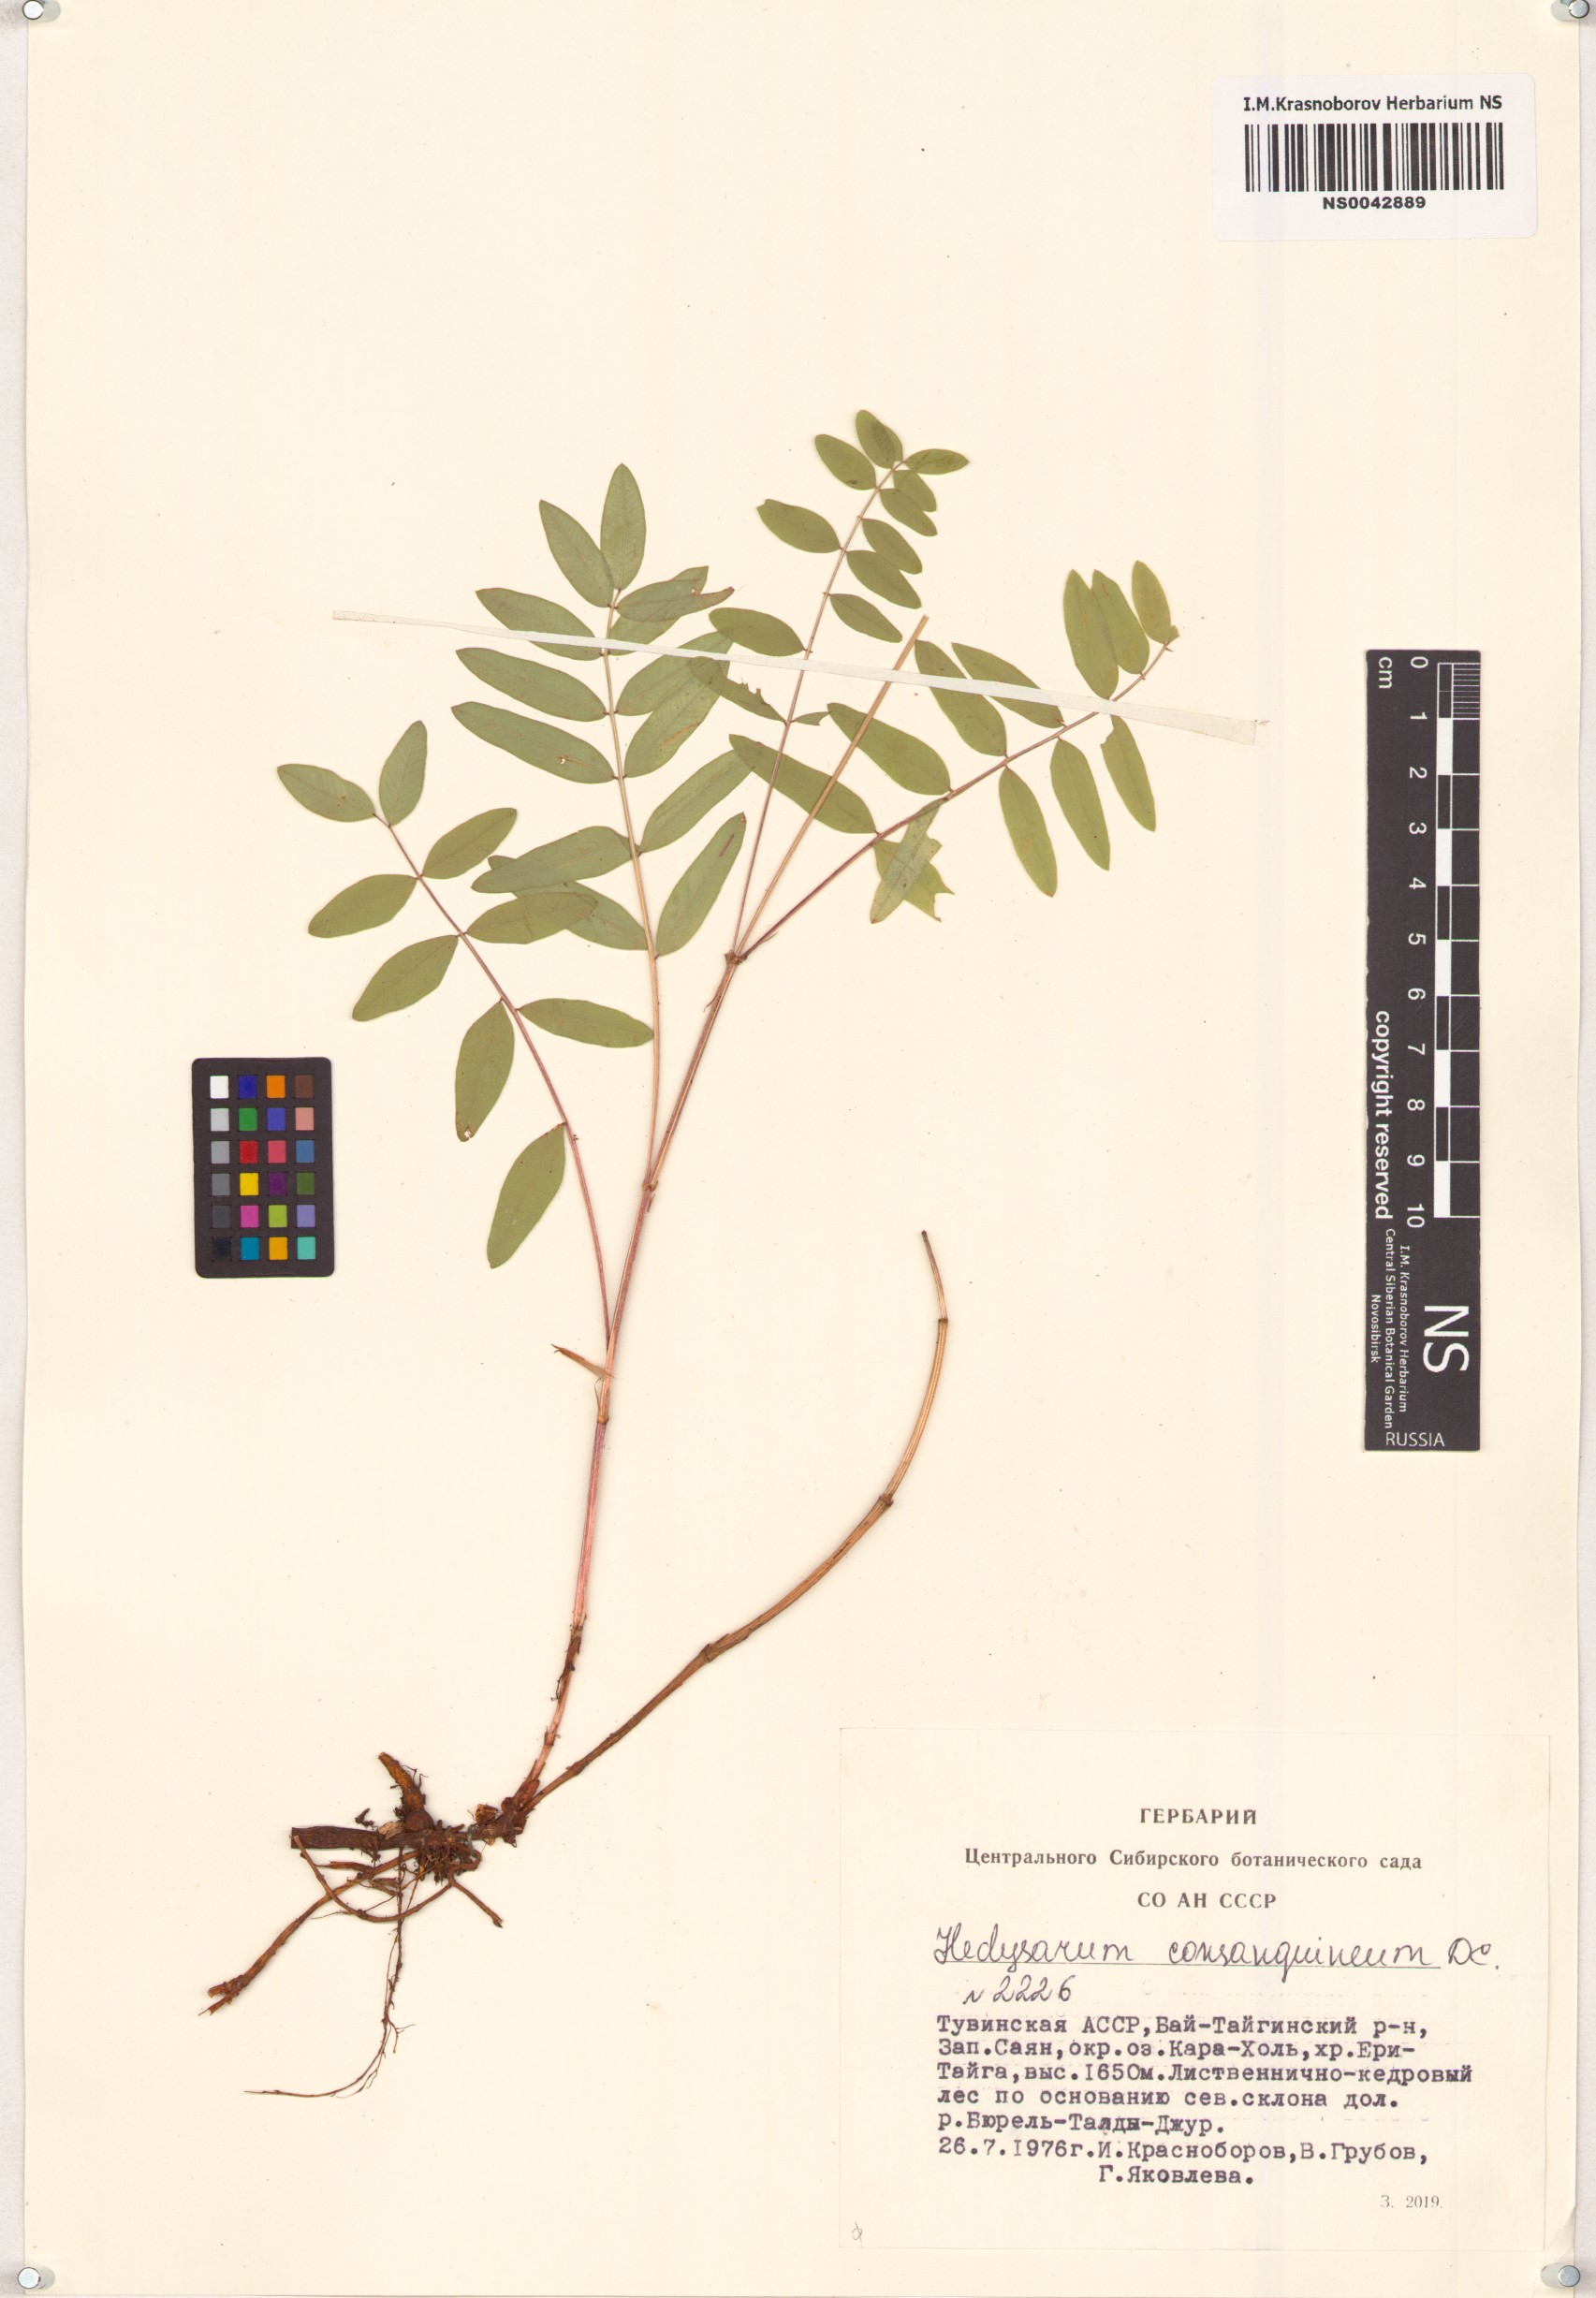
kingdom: Plantae
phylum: Tracheophyta
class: Magnoliopsida
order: Fabales
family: Fabaceae
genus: Hedysarum
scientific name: Hedysarum consanguineum
